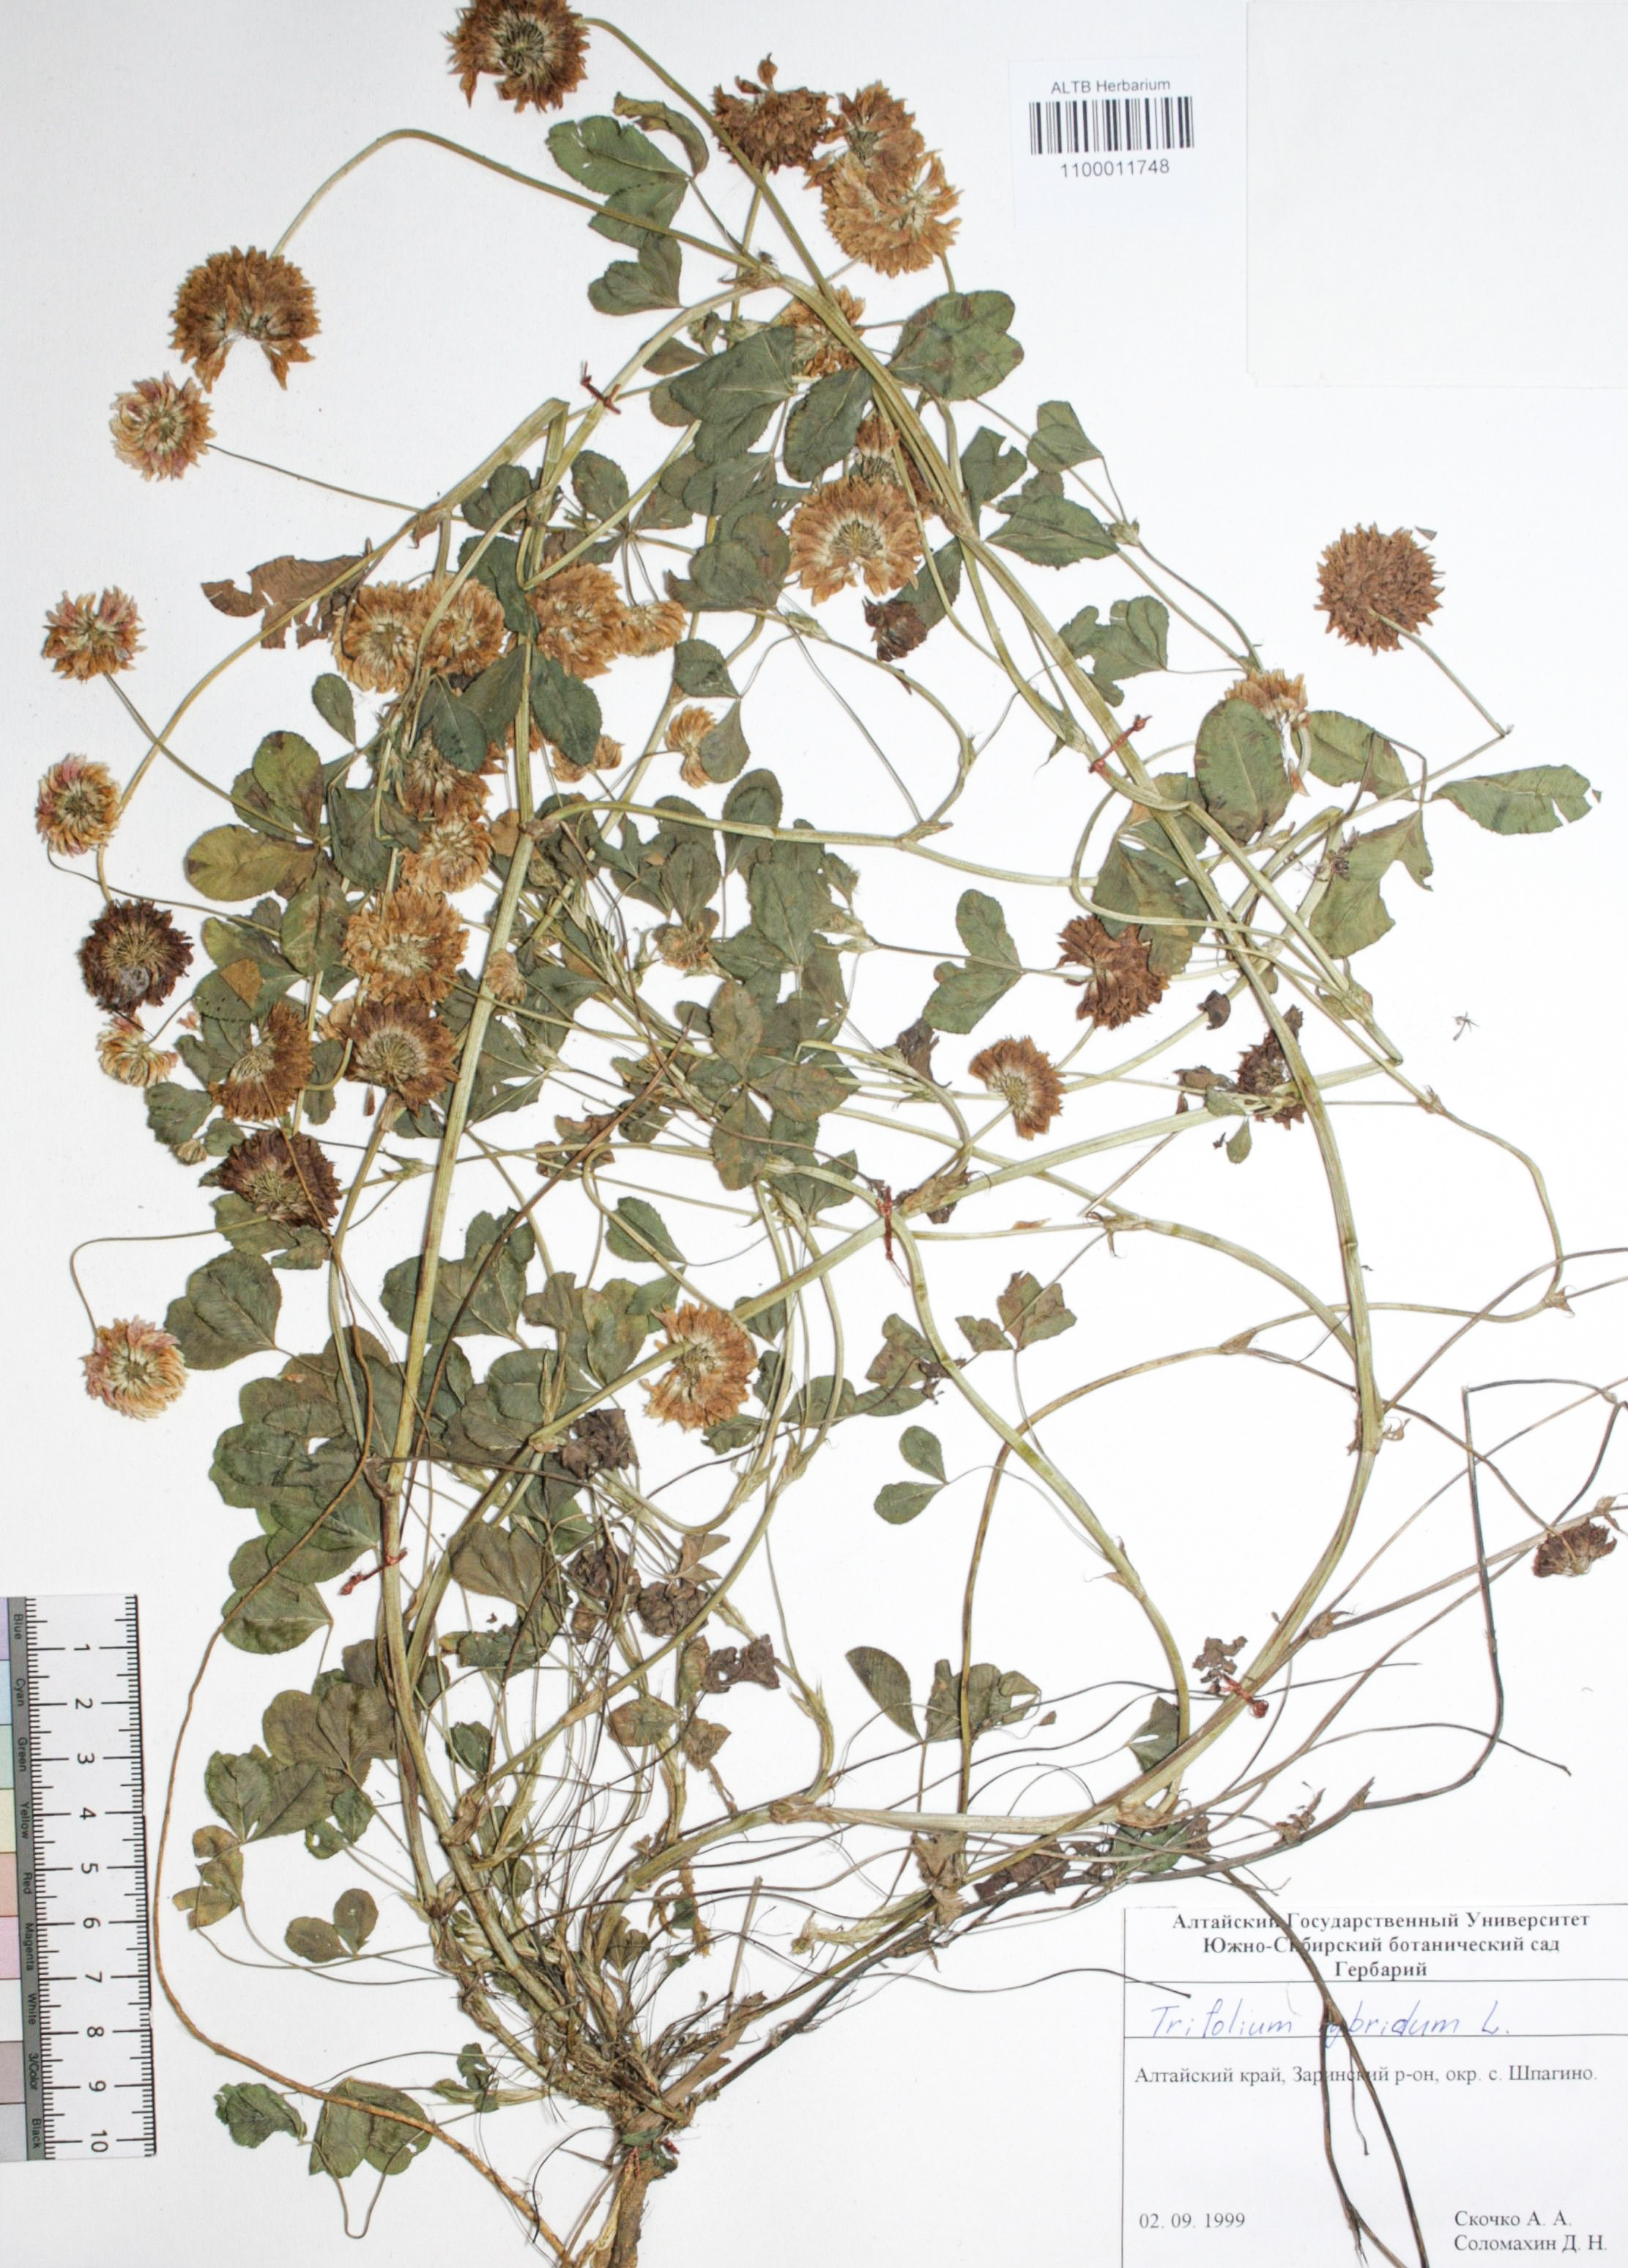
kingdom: Plantae
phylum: Tracheophyta
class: Magnoliopsida
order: Fabales
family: Fabaceae
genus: Trifolium
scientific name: Trifolium hybridum
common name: Alsike clover
